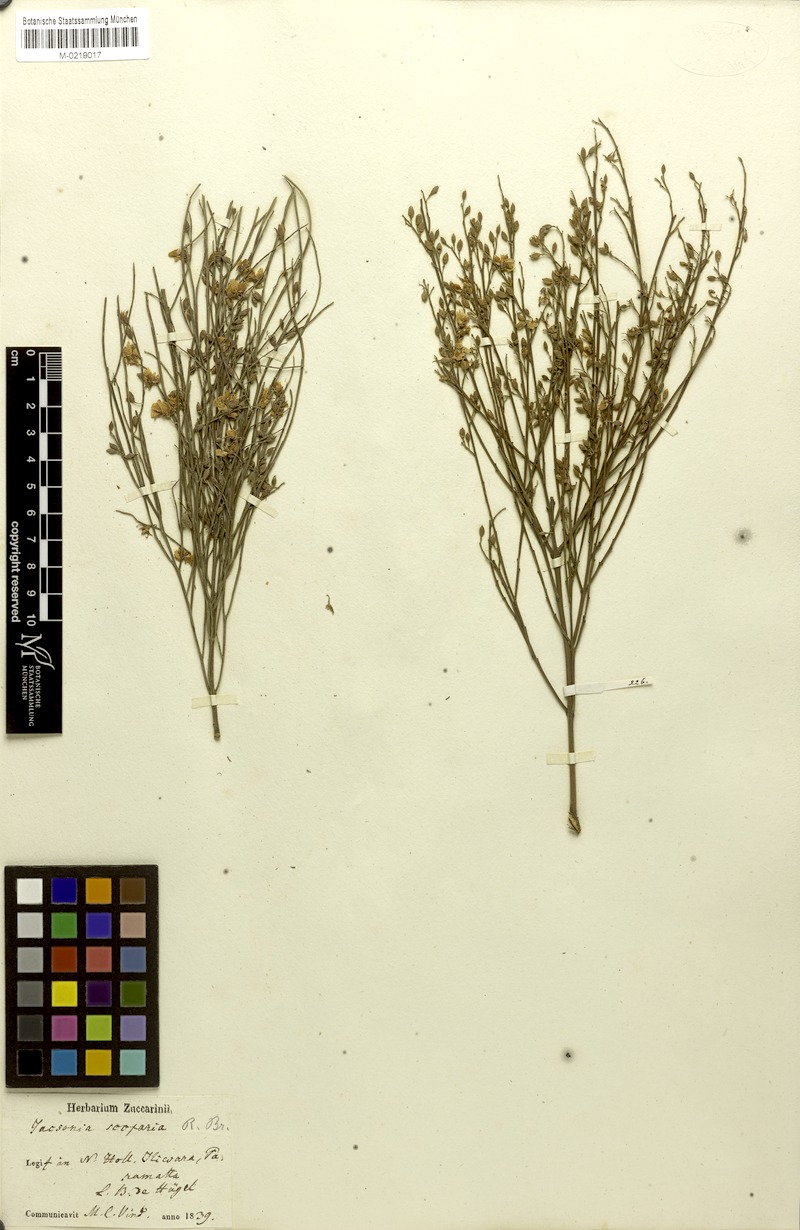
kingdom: Plantae
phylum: Tracheophyta
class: Magnoliopsida
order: Fabales
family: Fabaceae
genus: Jacksonia
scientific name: Jacksonia scoparia
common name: Dogwood
